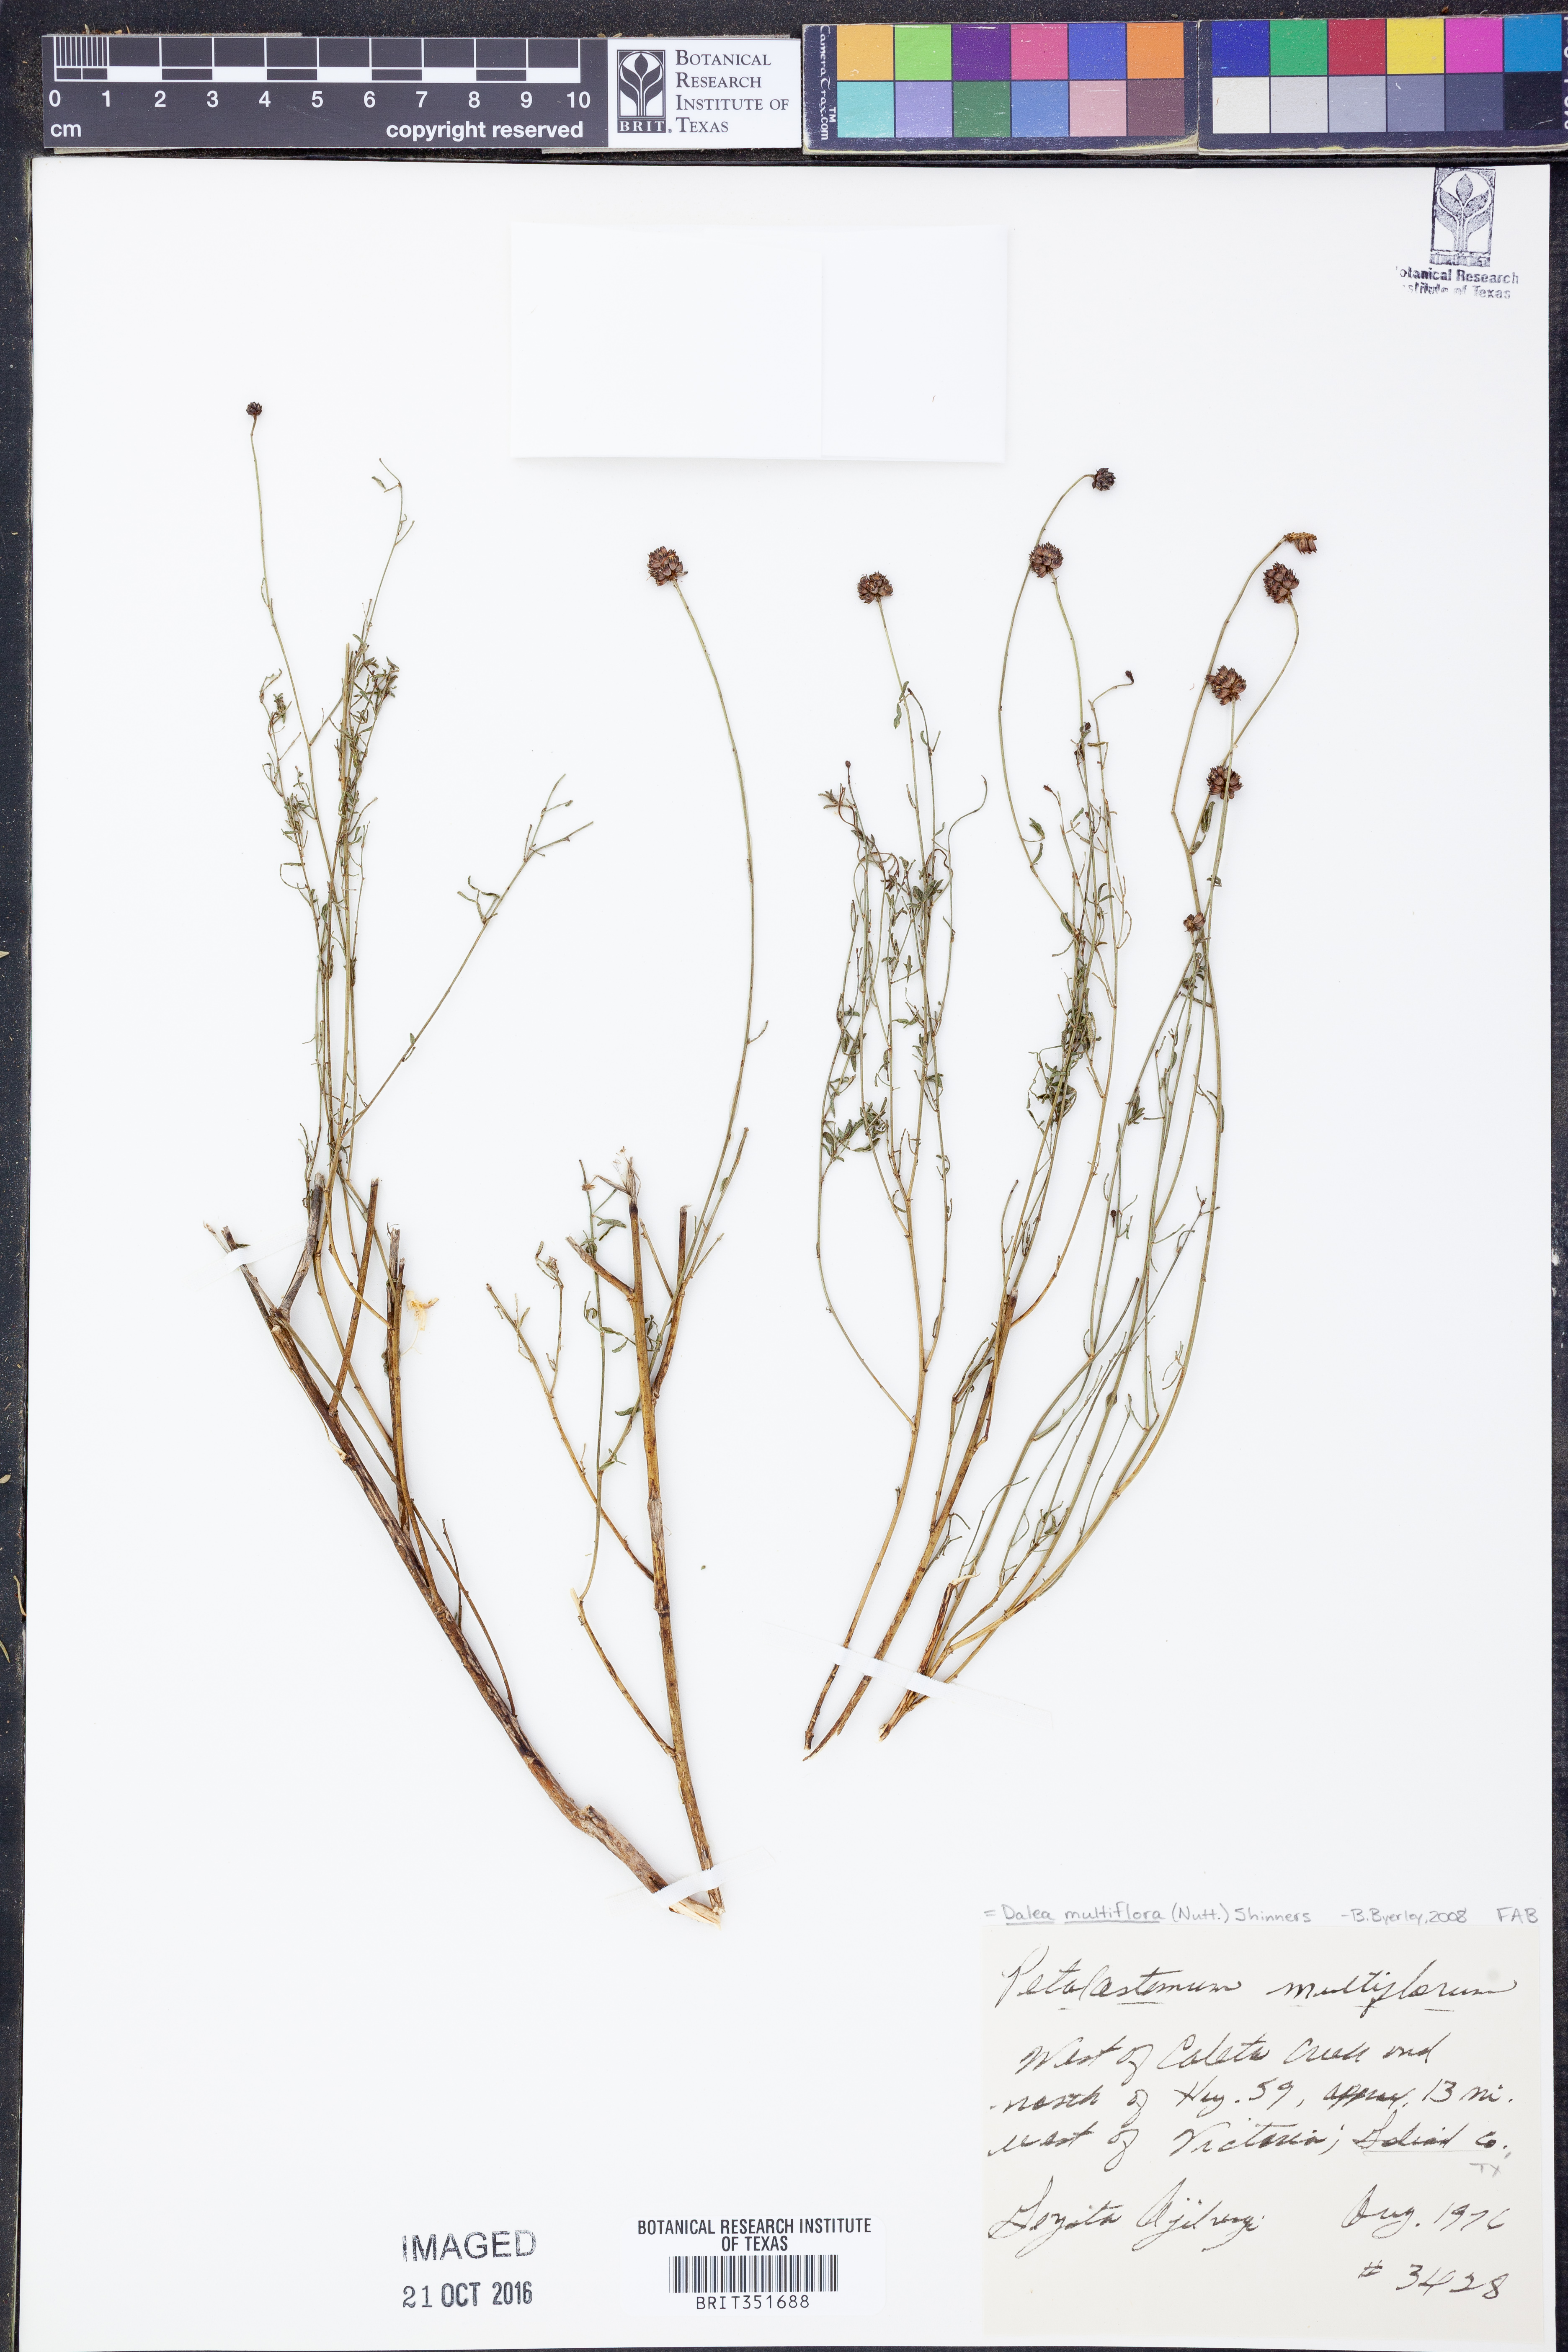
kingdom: Plantae
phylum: Tracheophyta
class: Magnoliopsida
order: Fabales
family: Fabaceae
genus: Dalea
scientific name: Dalea multiflora
